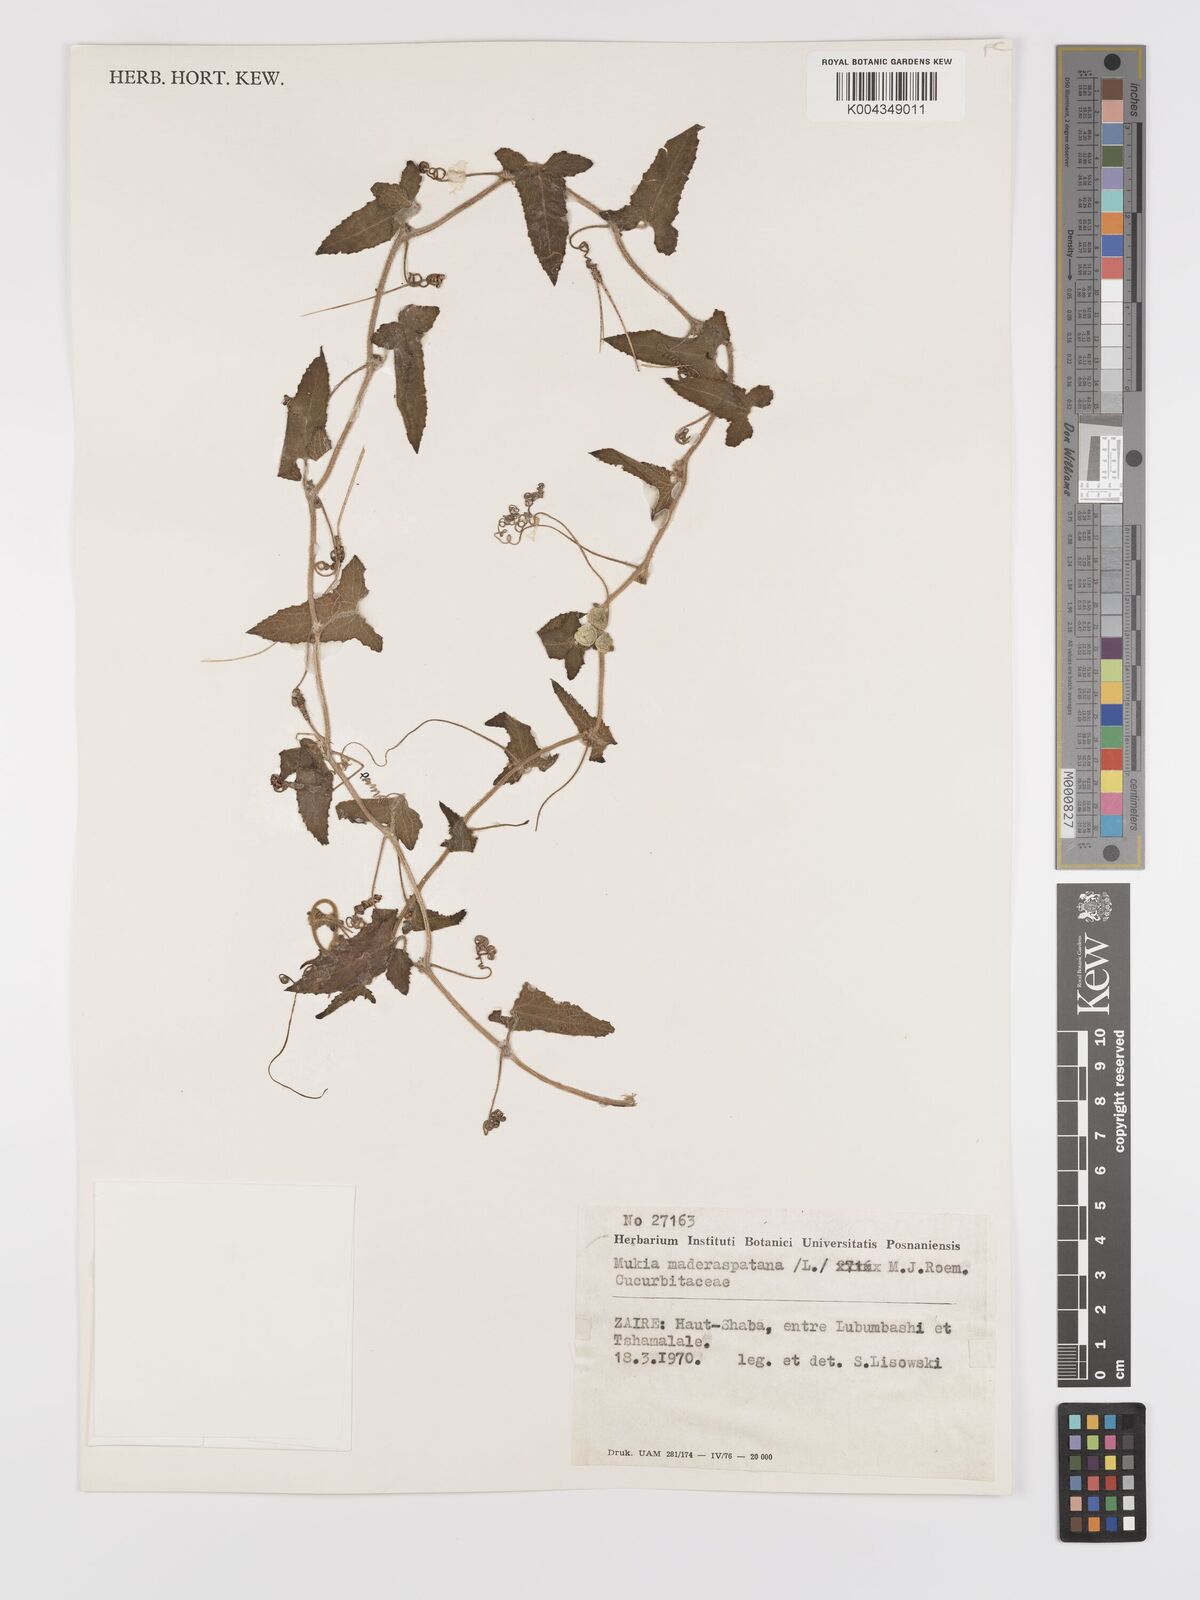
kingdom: Plantae
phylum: Tracheophyta
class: Magnoliopsida
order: Cucurbitales
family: Cucurbitaceae
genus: Cucumis
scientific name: Cucumis maderaspatanus
